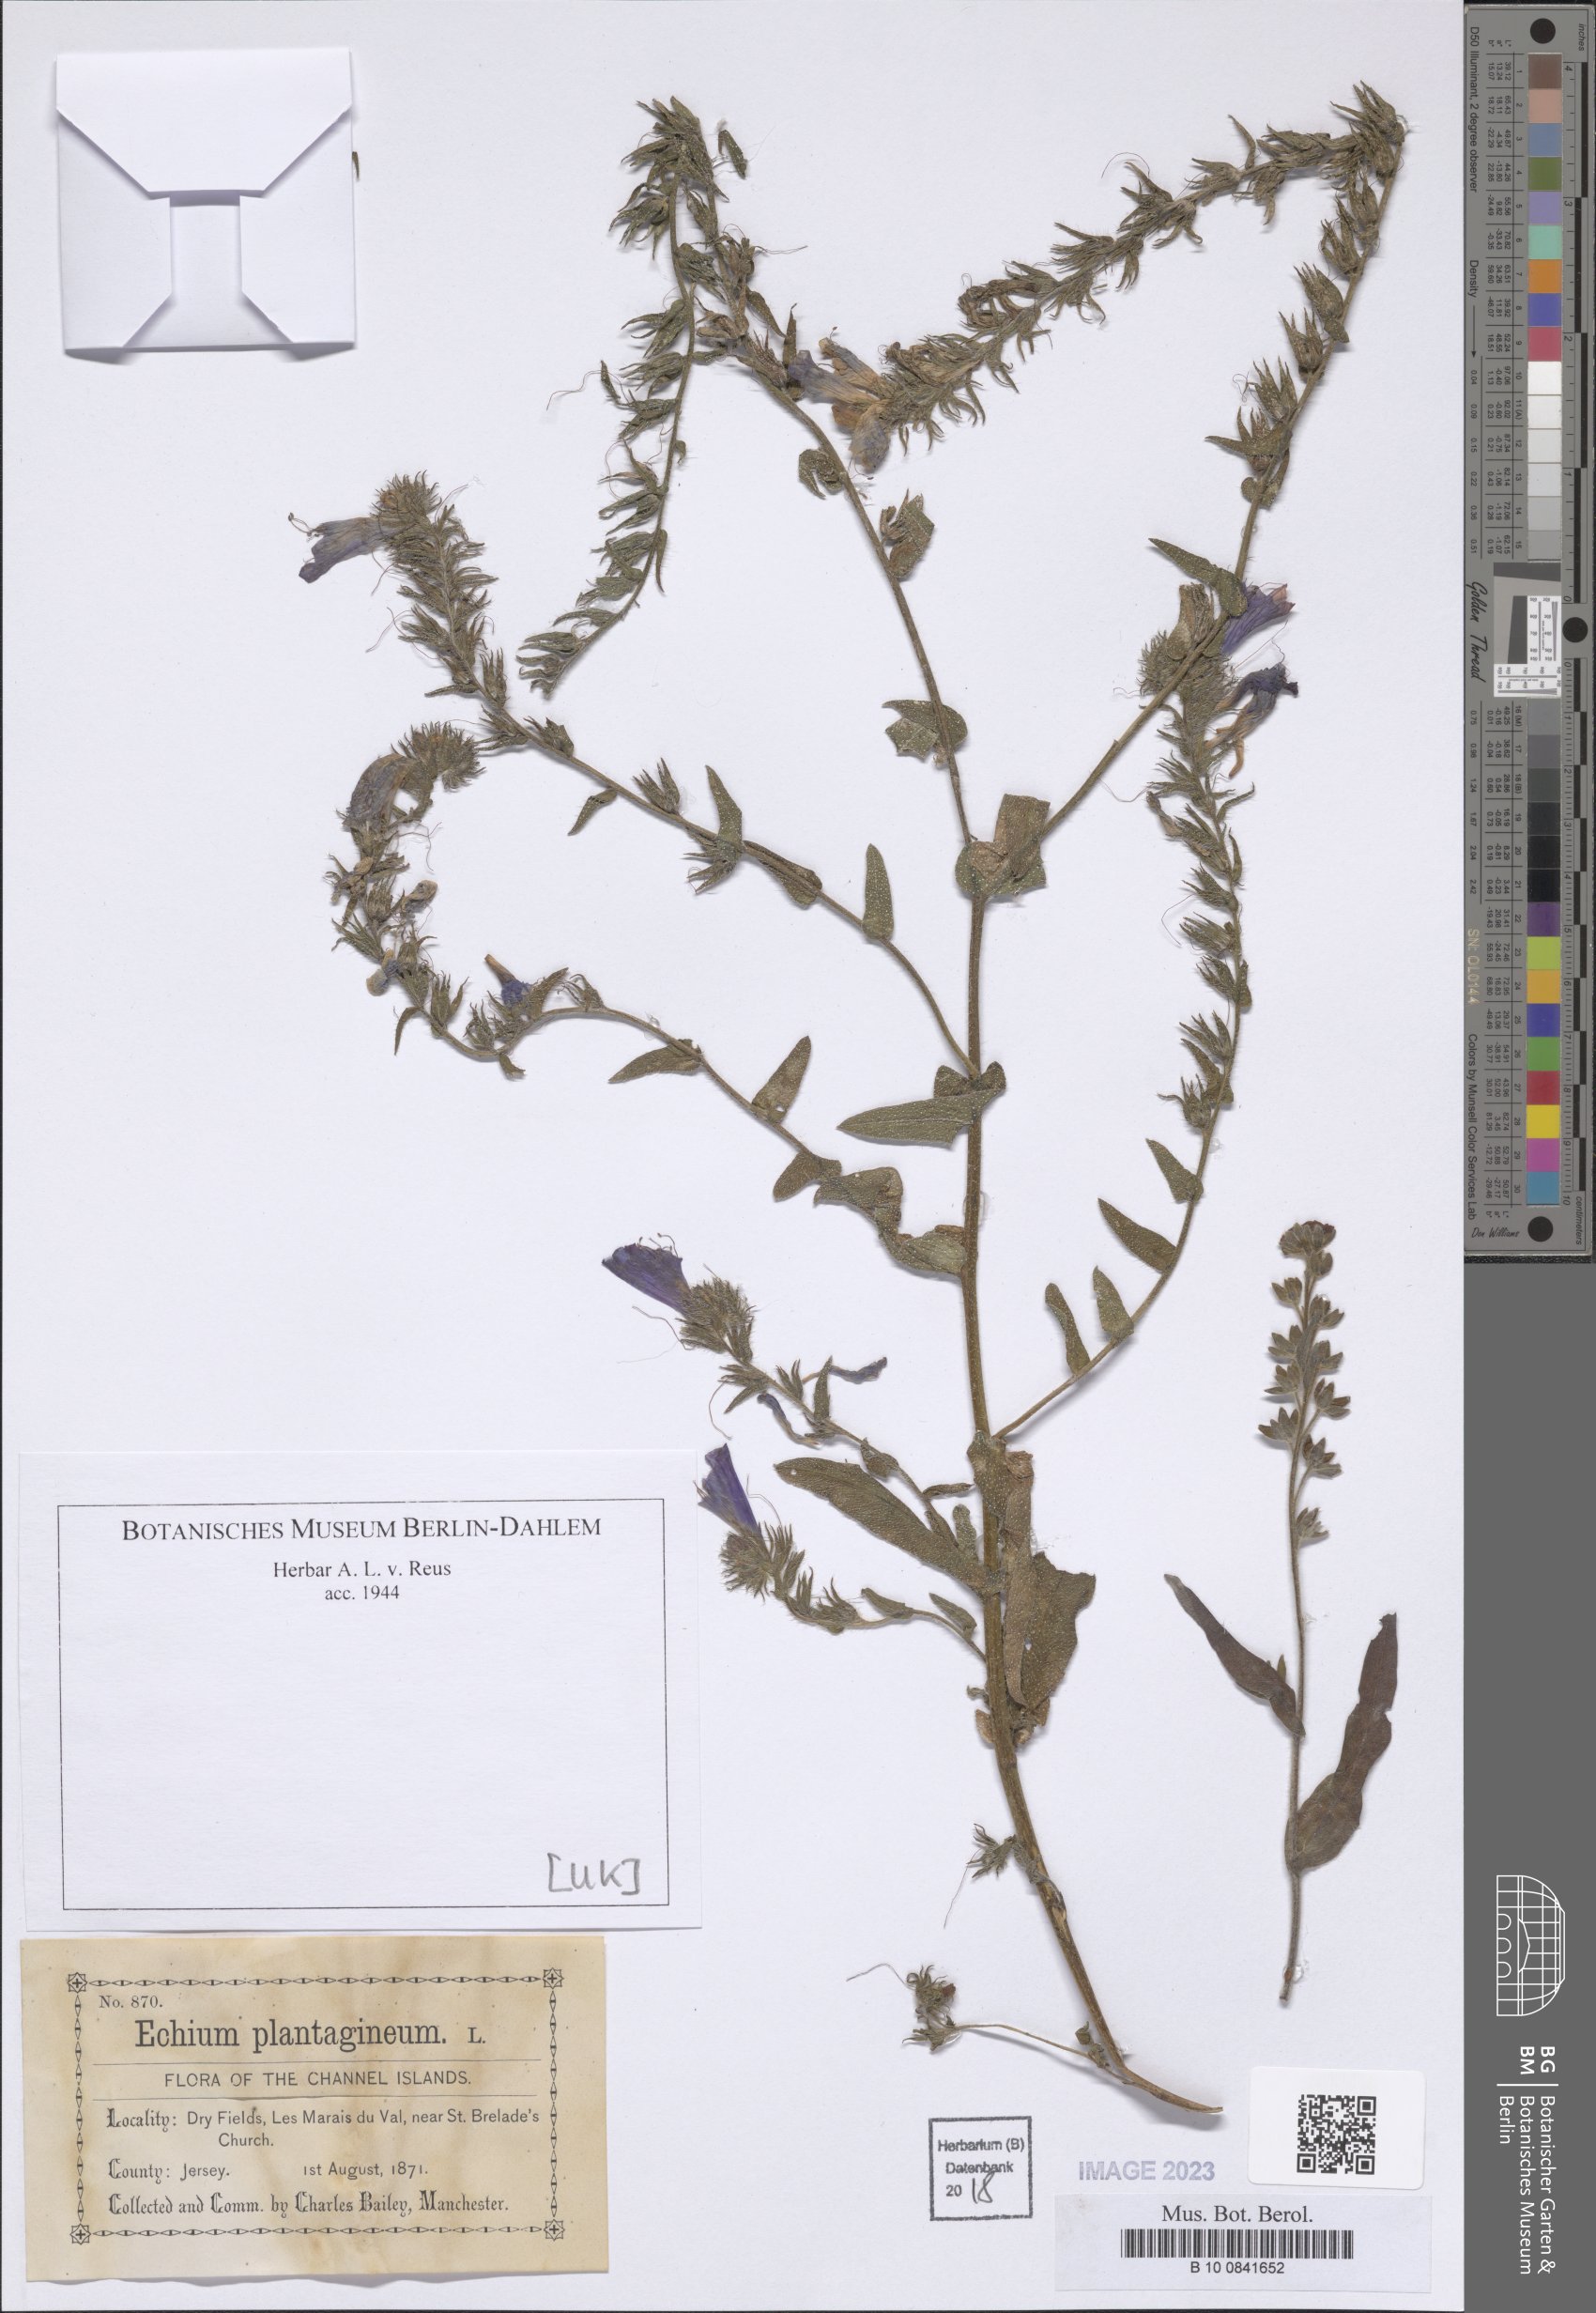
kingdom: Plantae
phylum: Tracheophyta
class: Magnoliopsida
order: Boraginales
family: Boraginaceae
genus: Echium
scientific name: Echium plantagineum
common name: Purple viper's-bugloss
